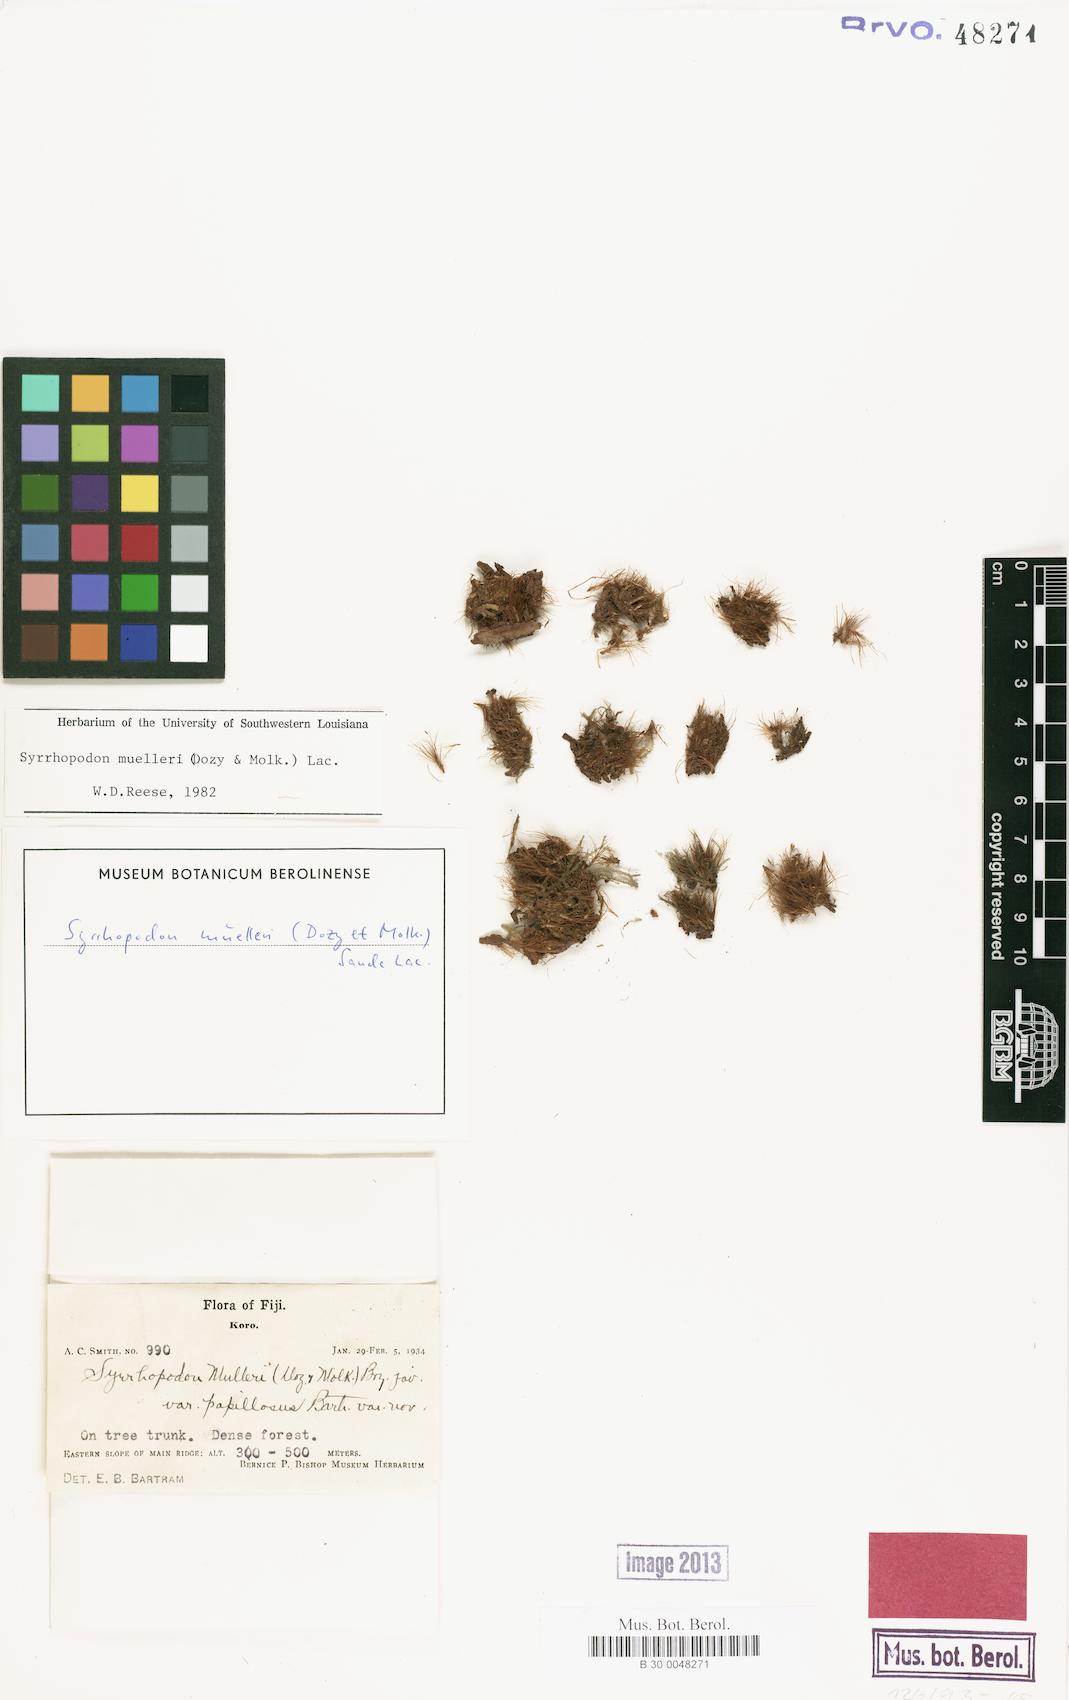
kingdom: Plantae
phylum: Bryophyta
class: Bryopsida
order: Dicranales
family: Calymperaceae
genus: Syrrhopodon
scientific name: Syrrhopodon muelleri
